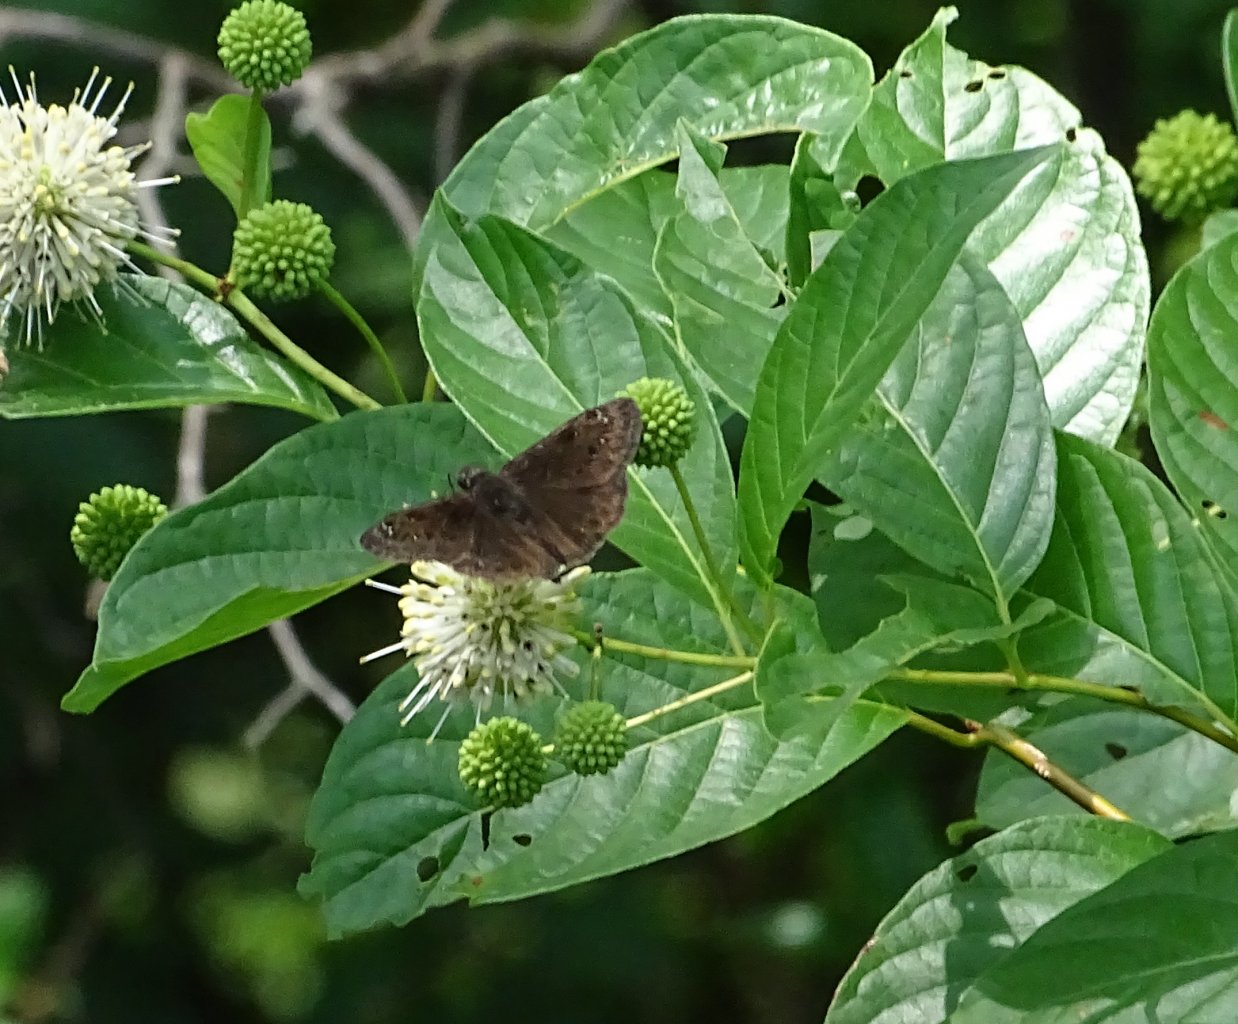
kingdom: Animalia
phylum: Arthropoda
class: Insecta
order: Lepidoptera
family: Hesperiidae
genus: Gesta
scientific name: Gesta
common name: Horace's Duskywing
